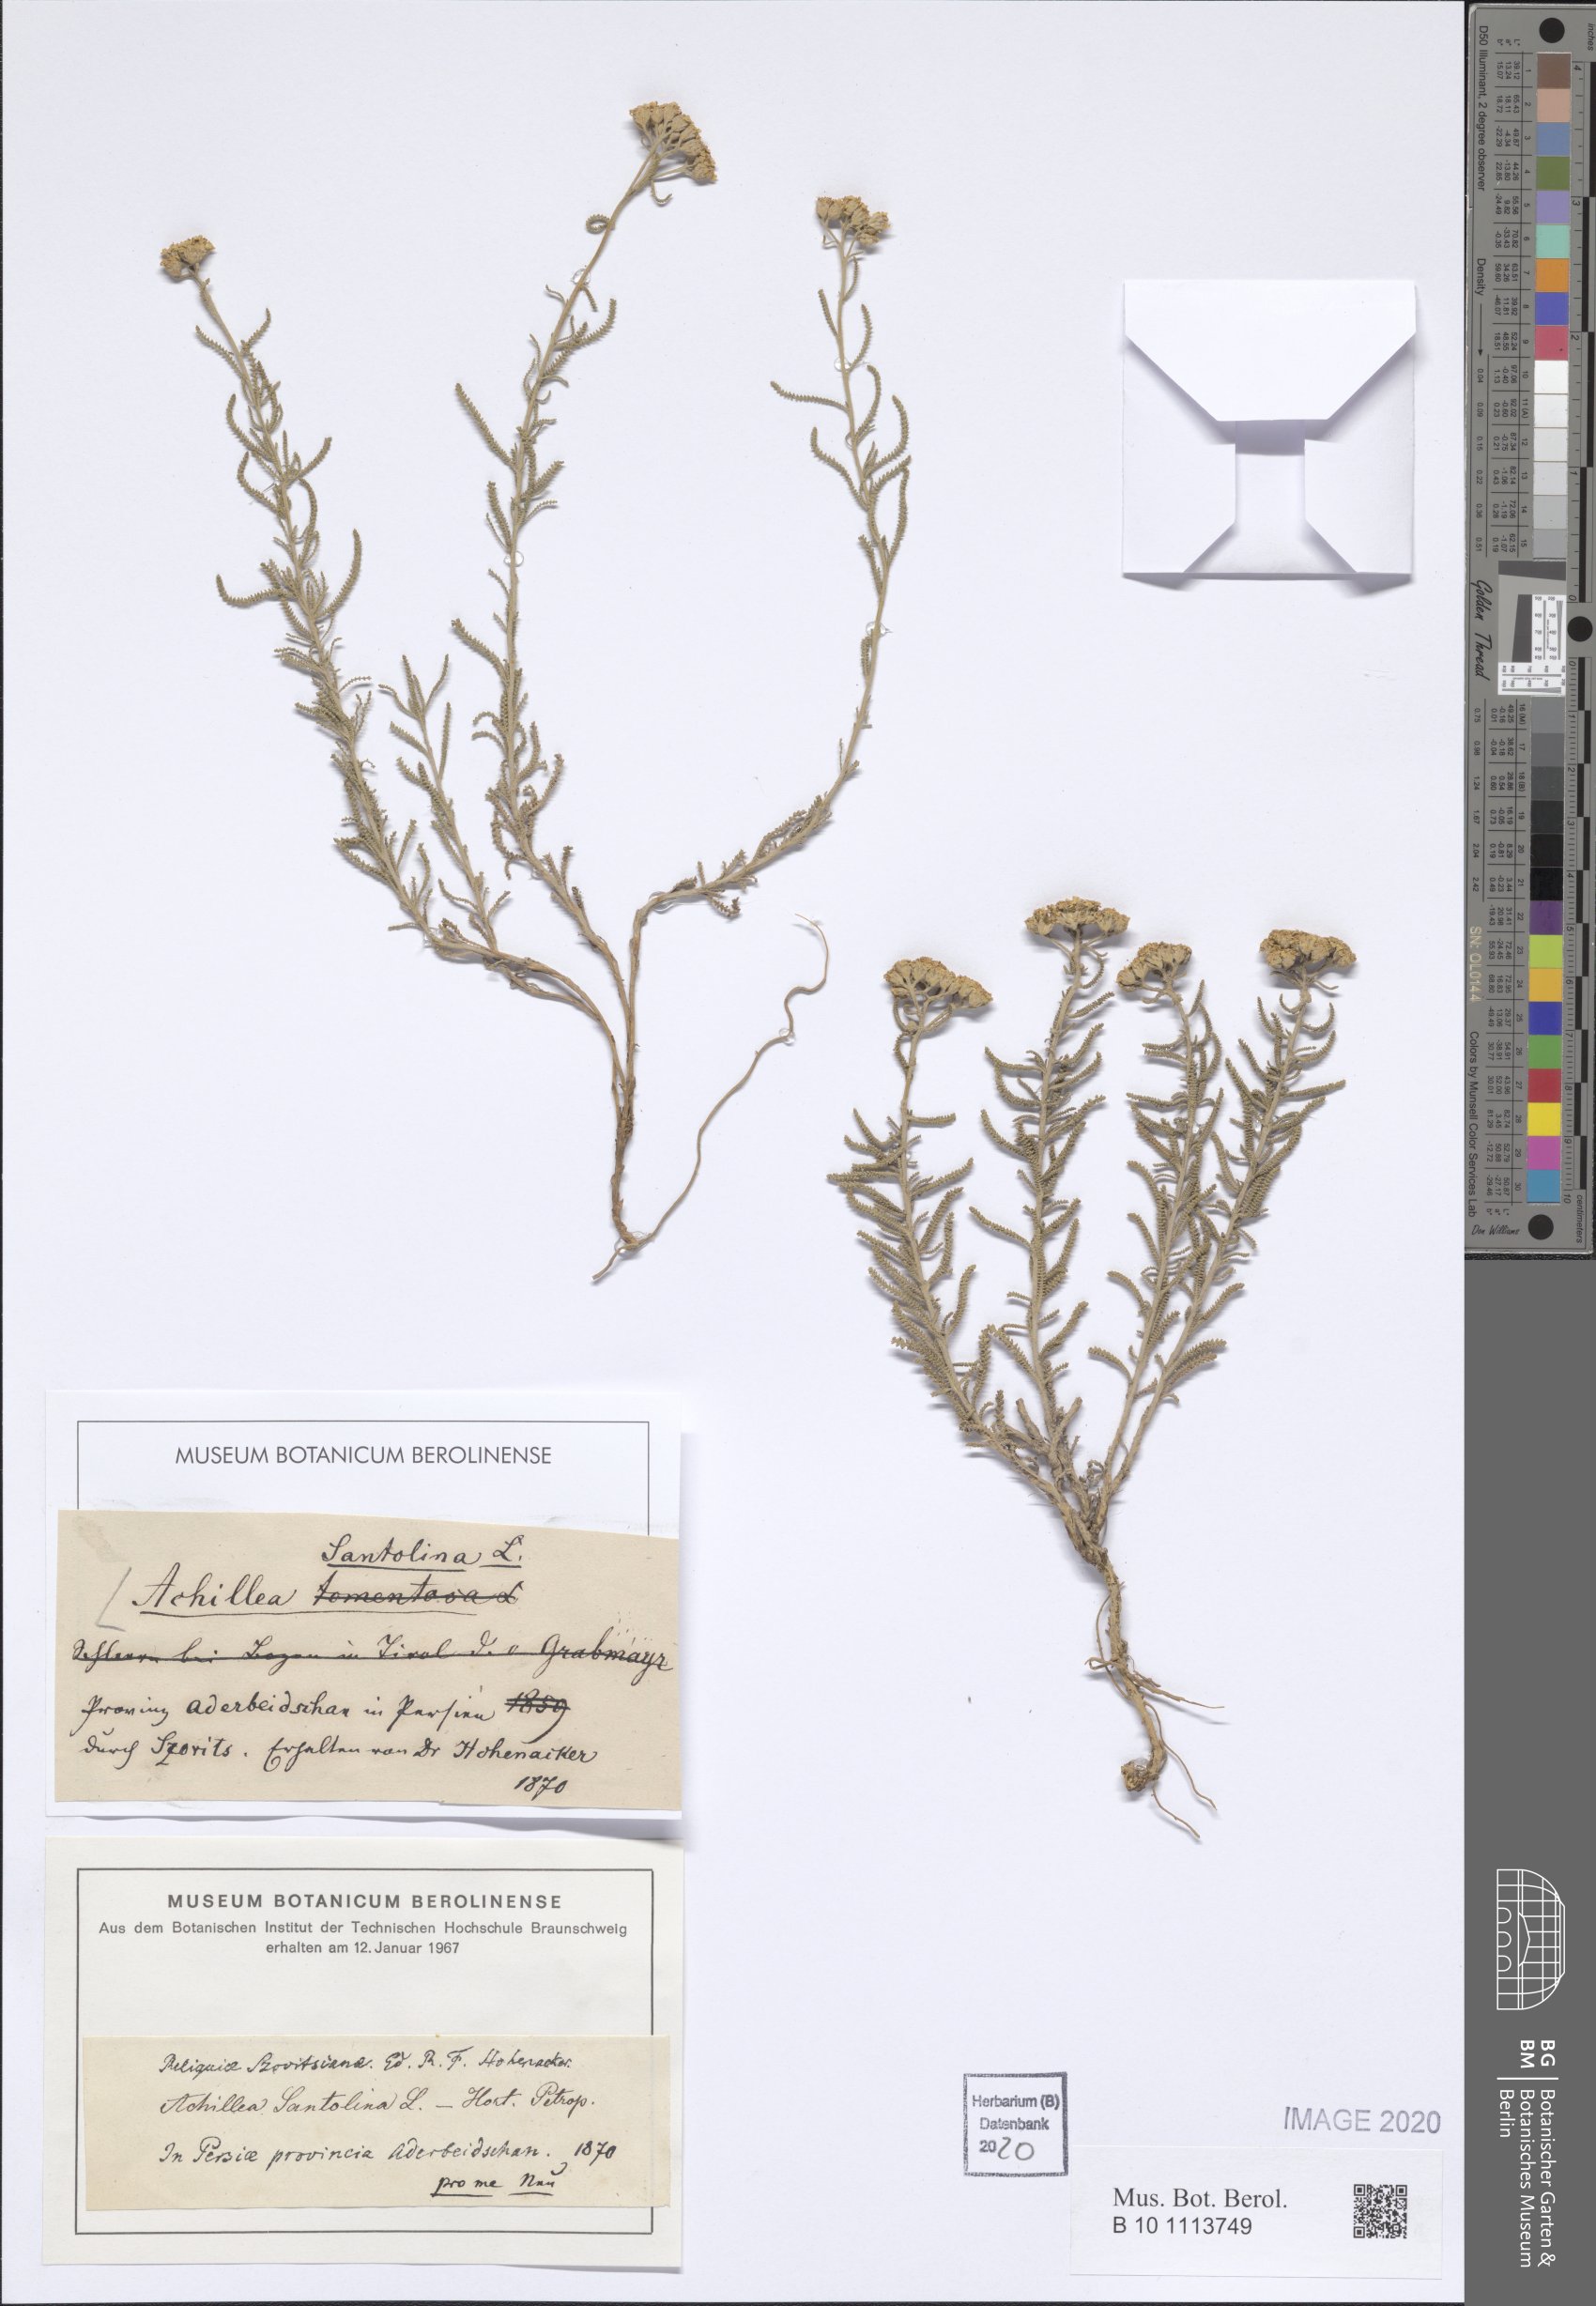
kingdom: Plantae
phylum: Tracheophyta
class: Magnoliopsida
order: Asterales
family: Asteraceae
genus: Achillea
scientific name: Achillea tenuifolia
